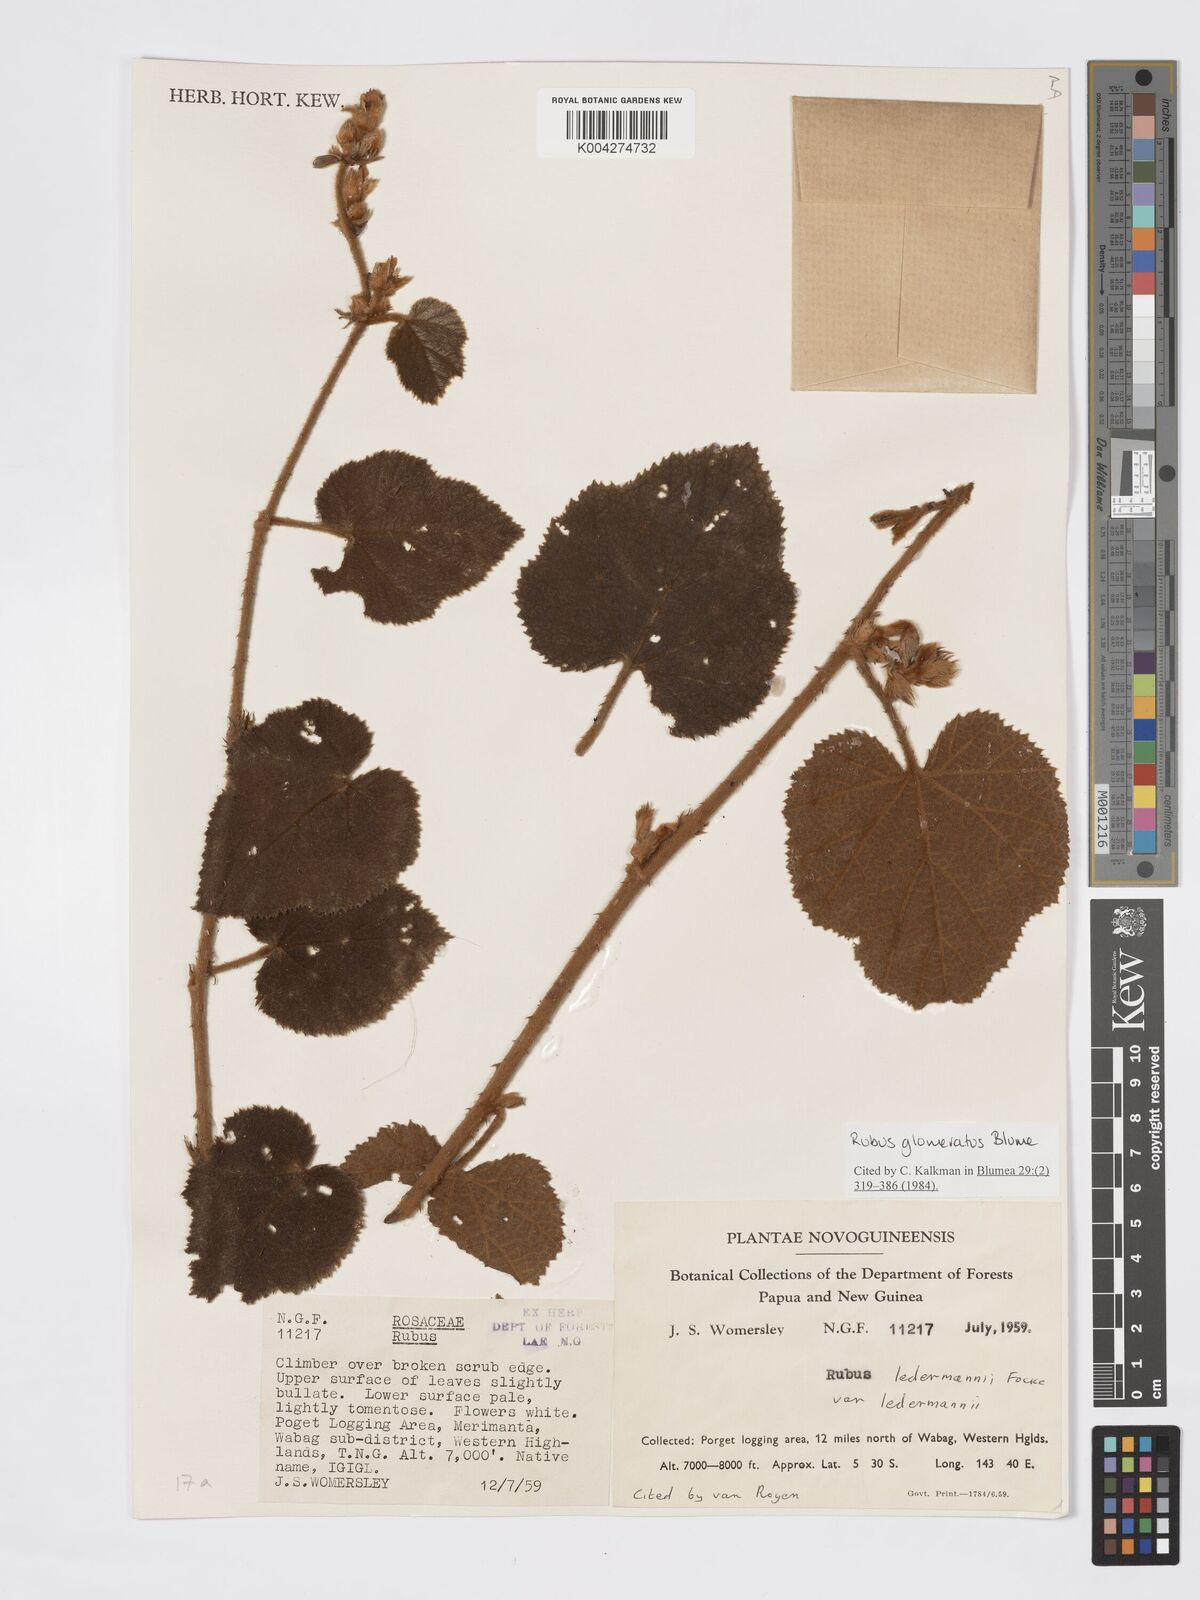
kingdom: Plantae
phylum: Tracheophyta
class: Magnoliopsida
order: Rosales
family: Rosaceae
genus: Rubus
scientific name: Rubus
